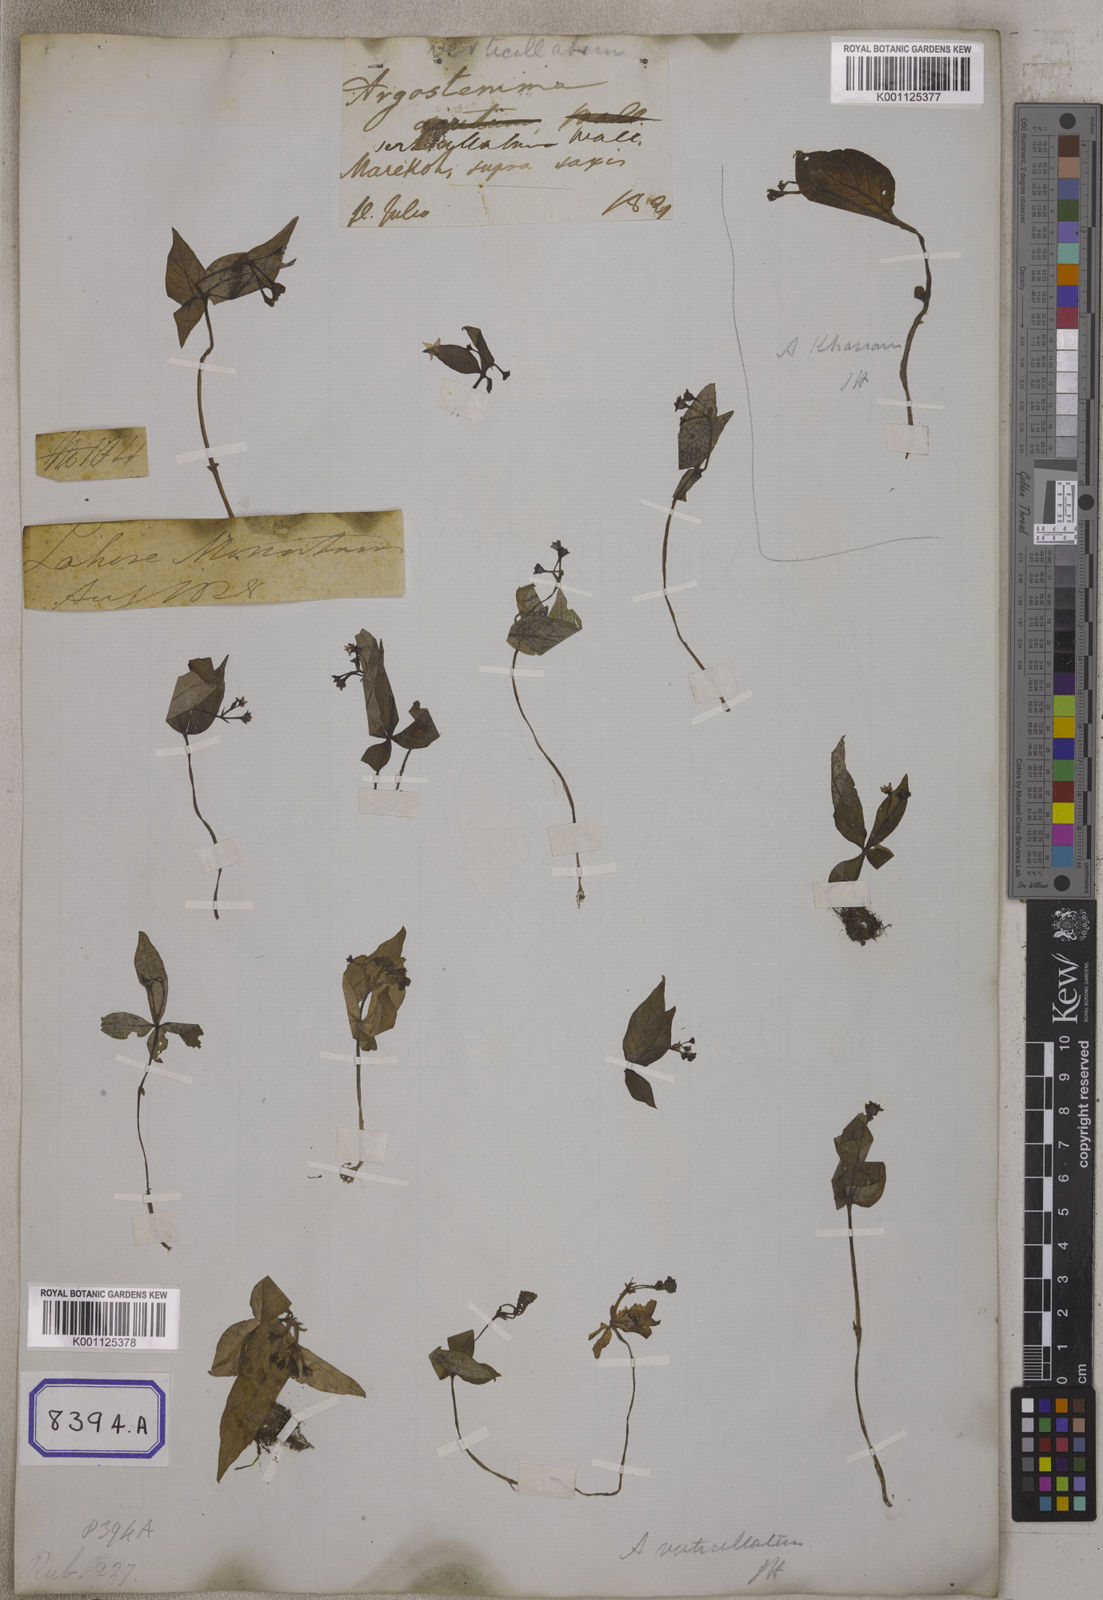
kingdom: Plantae
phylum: Tracheophyta
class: Magnoliopsida
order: Gentianales
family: Rubiaceae
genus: Argostemma
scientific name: Argostemma verticillatum
